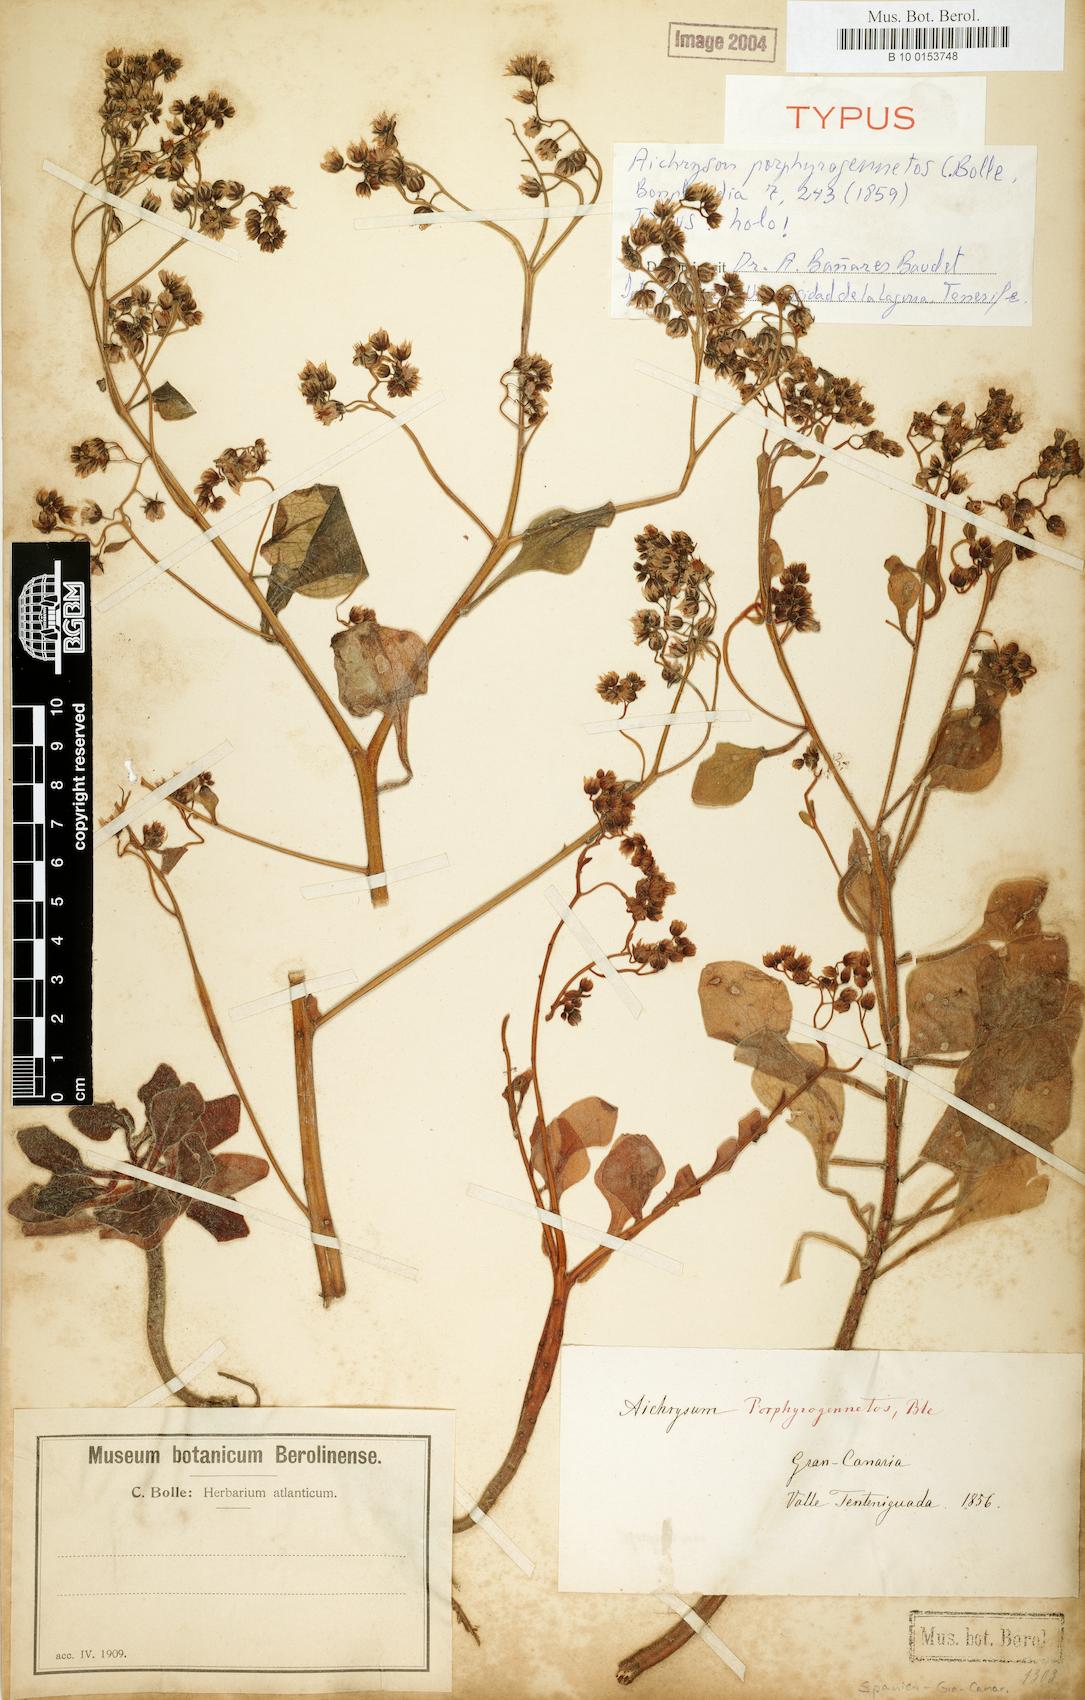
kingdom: Plantae
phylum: Tracheophyta
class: Magnoliopsida
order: Saxifragales
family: Crassulaceae
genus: Aichryson
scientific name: Aichryson porphyrogennetos
